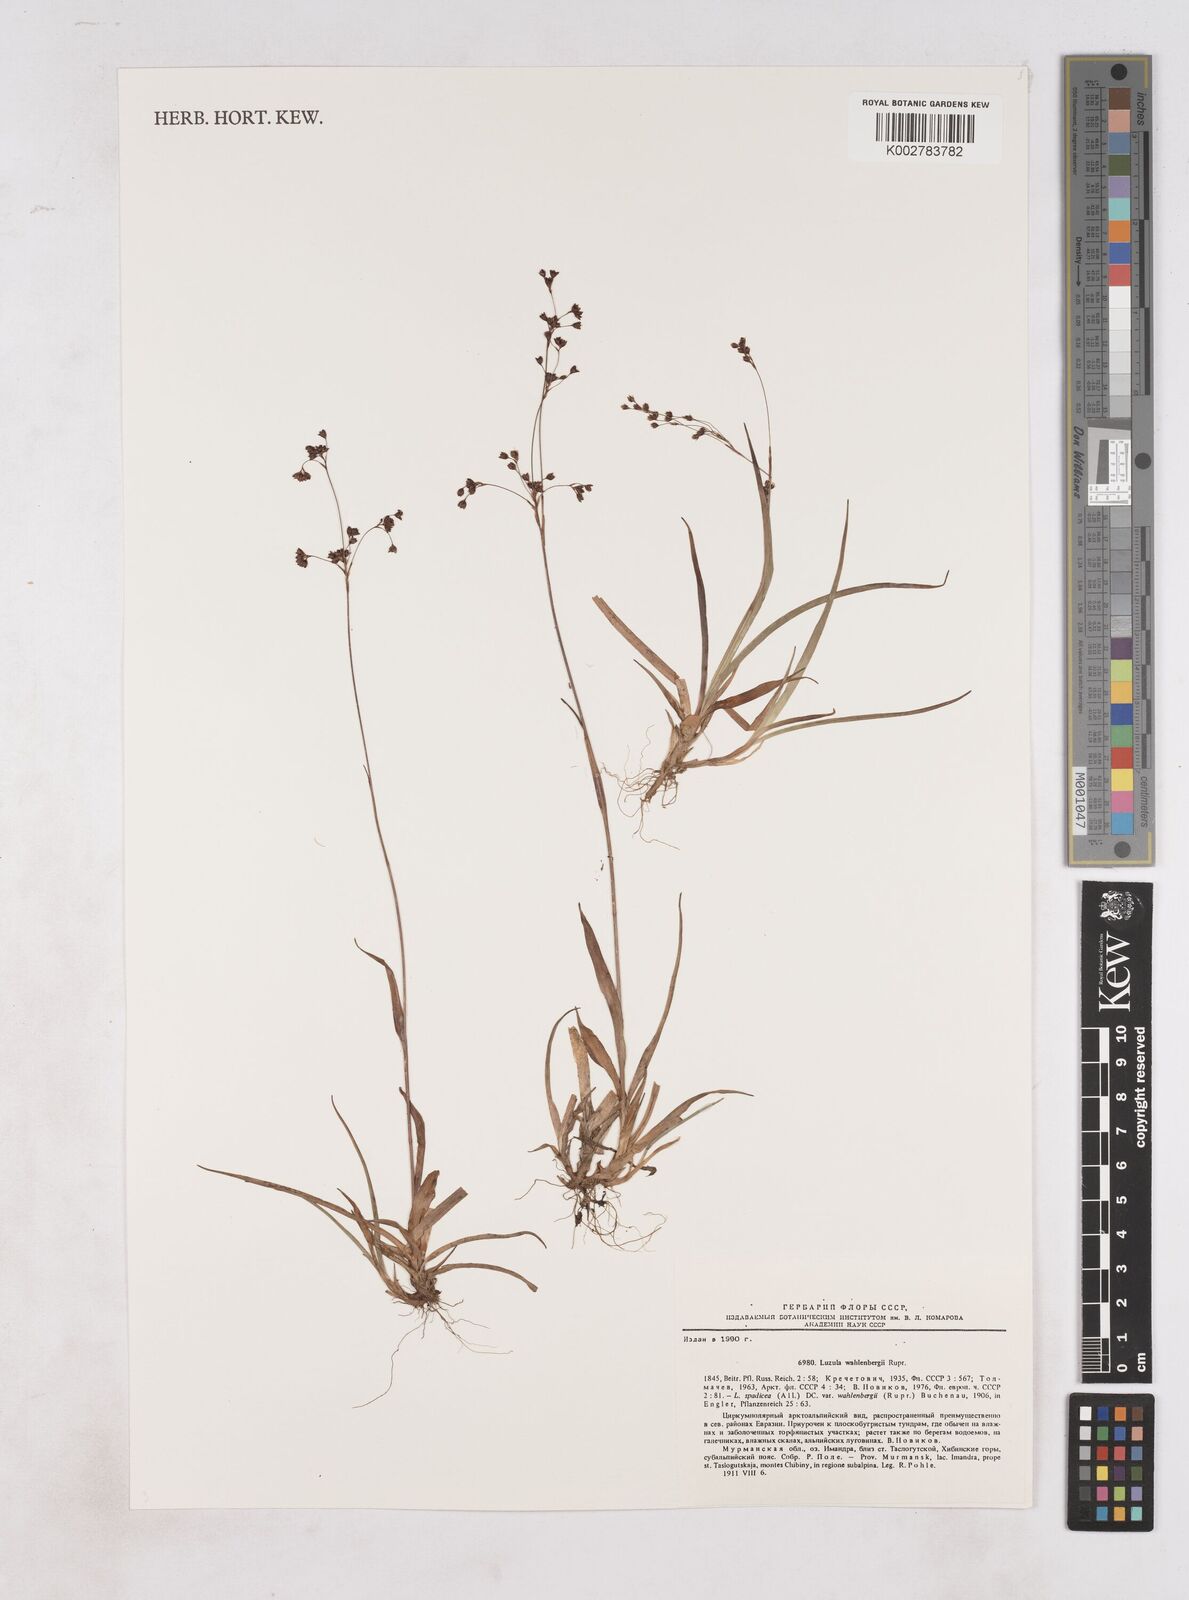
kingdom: Plantae
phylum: Tracheophyta
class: Liliopsida
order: Poales
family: Juncaceae
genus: Luzula
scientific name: Luzula wahlenbergii
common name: Wahlenberg's wood-rush
